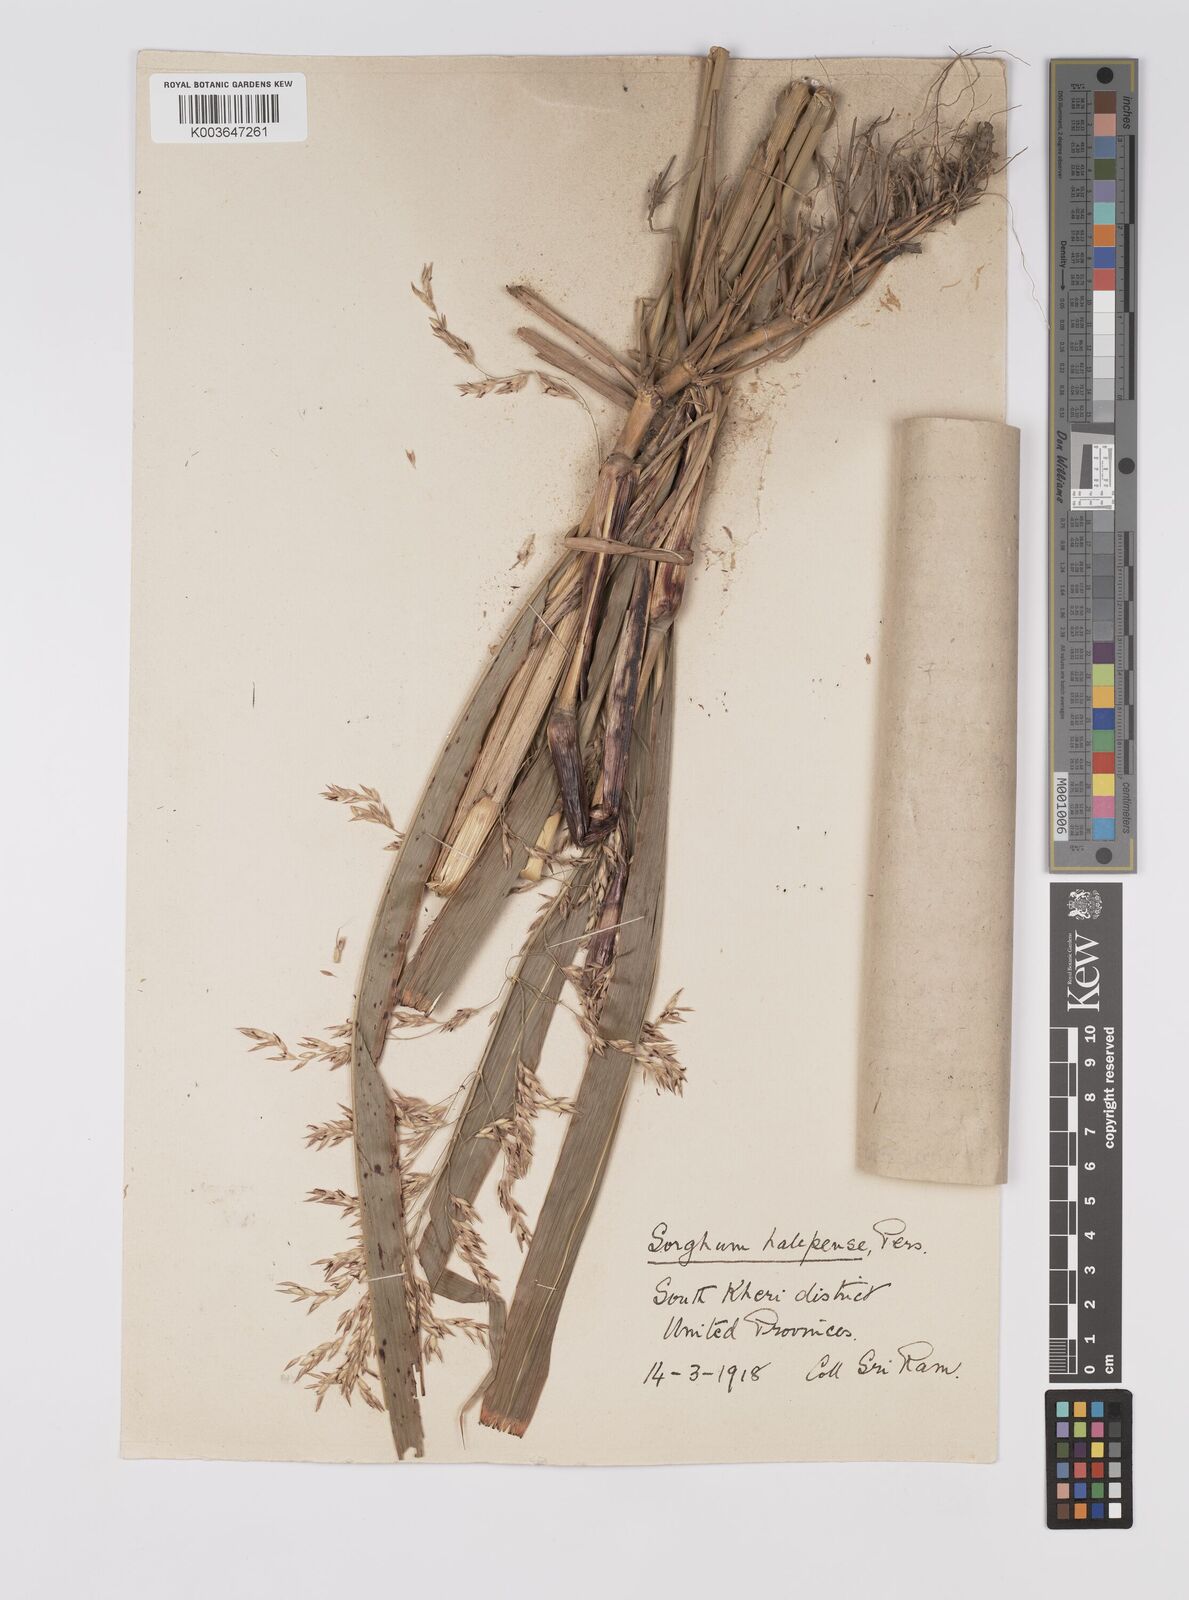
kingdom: Plantae
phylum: Tracheophyta
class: Liliopsida
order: Poales
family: Poaceae
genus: Sorghum
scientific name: Sorghum halepense
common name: Johnson-grass
